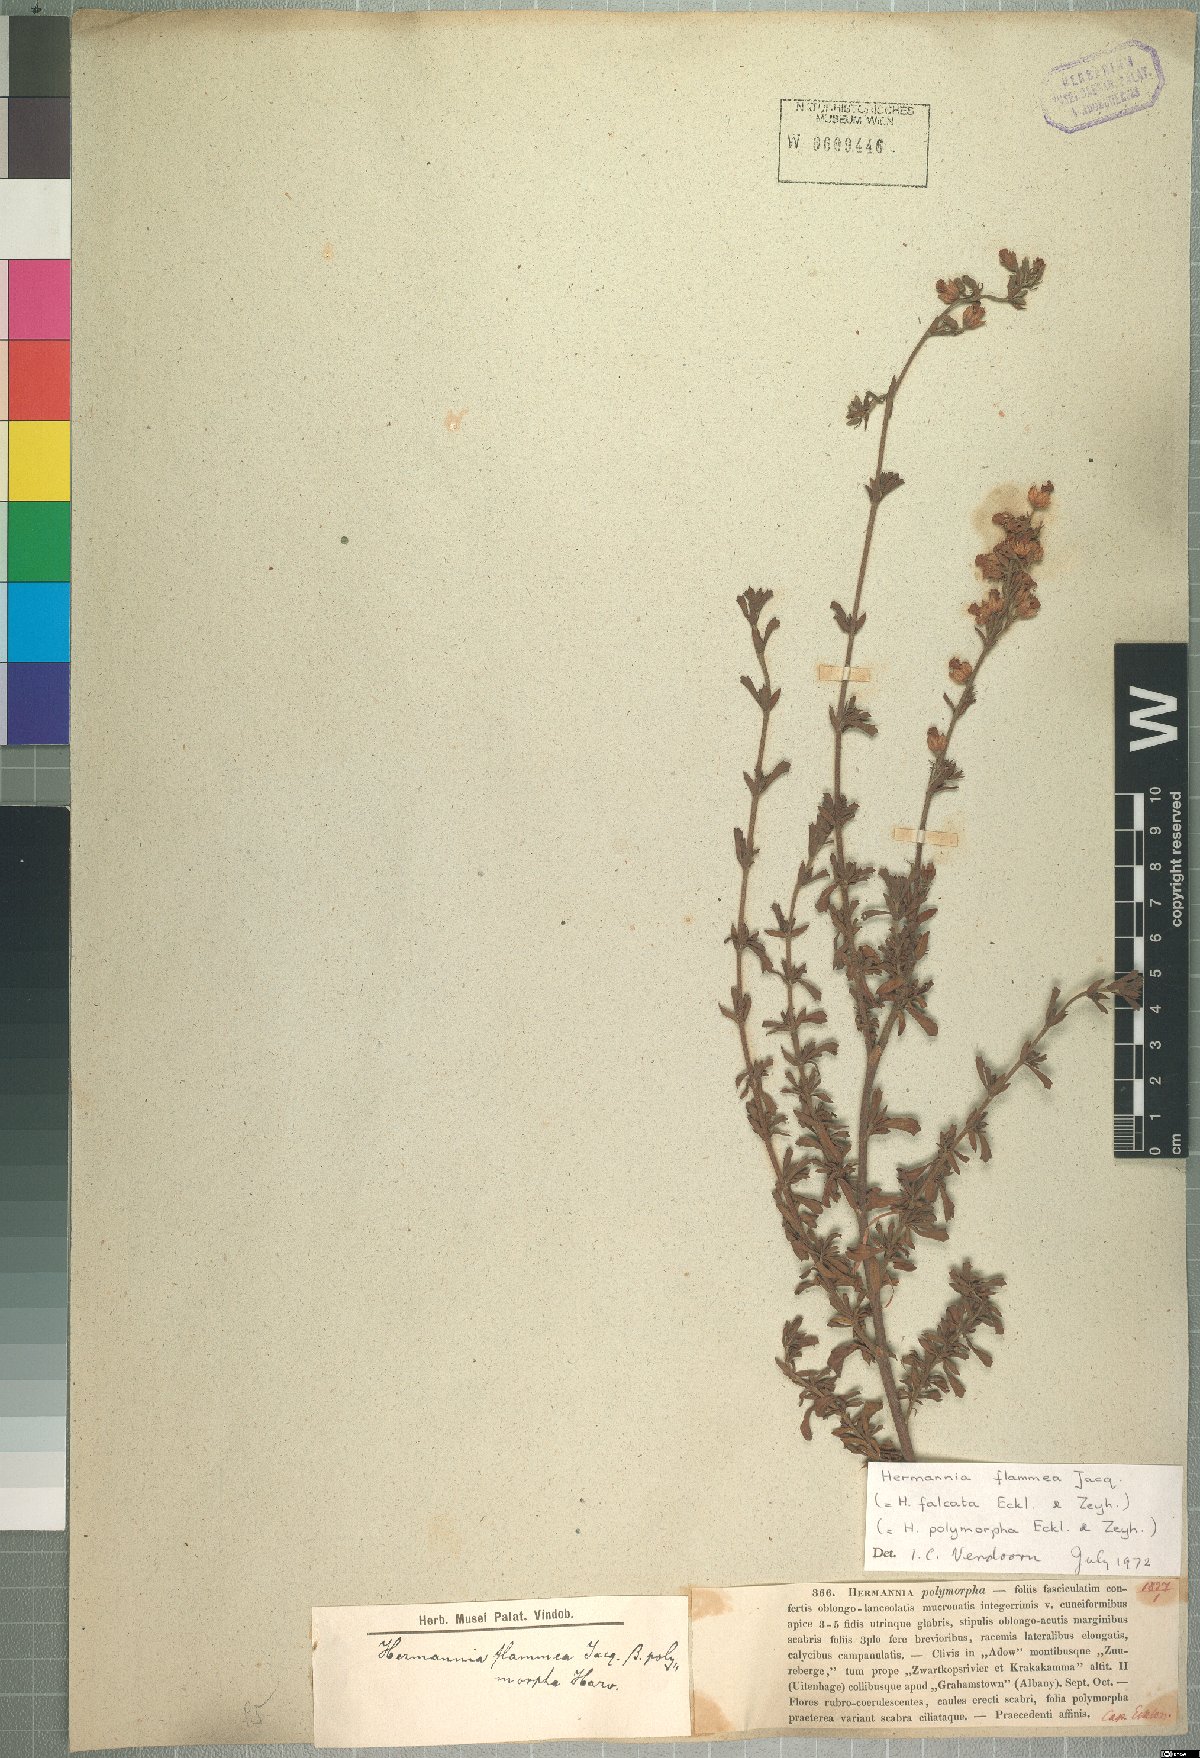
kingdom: Plantae
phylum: Tracheophyta
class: Magnoliopsida
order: Malvales
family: Malvaceae
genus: Hermannia
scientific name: Hermannia flammea
